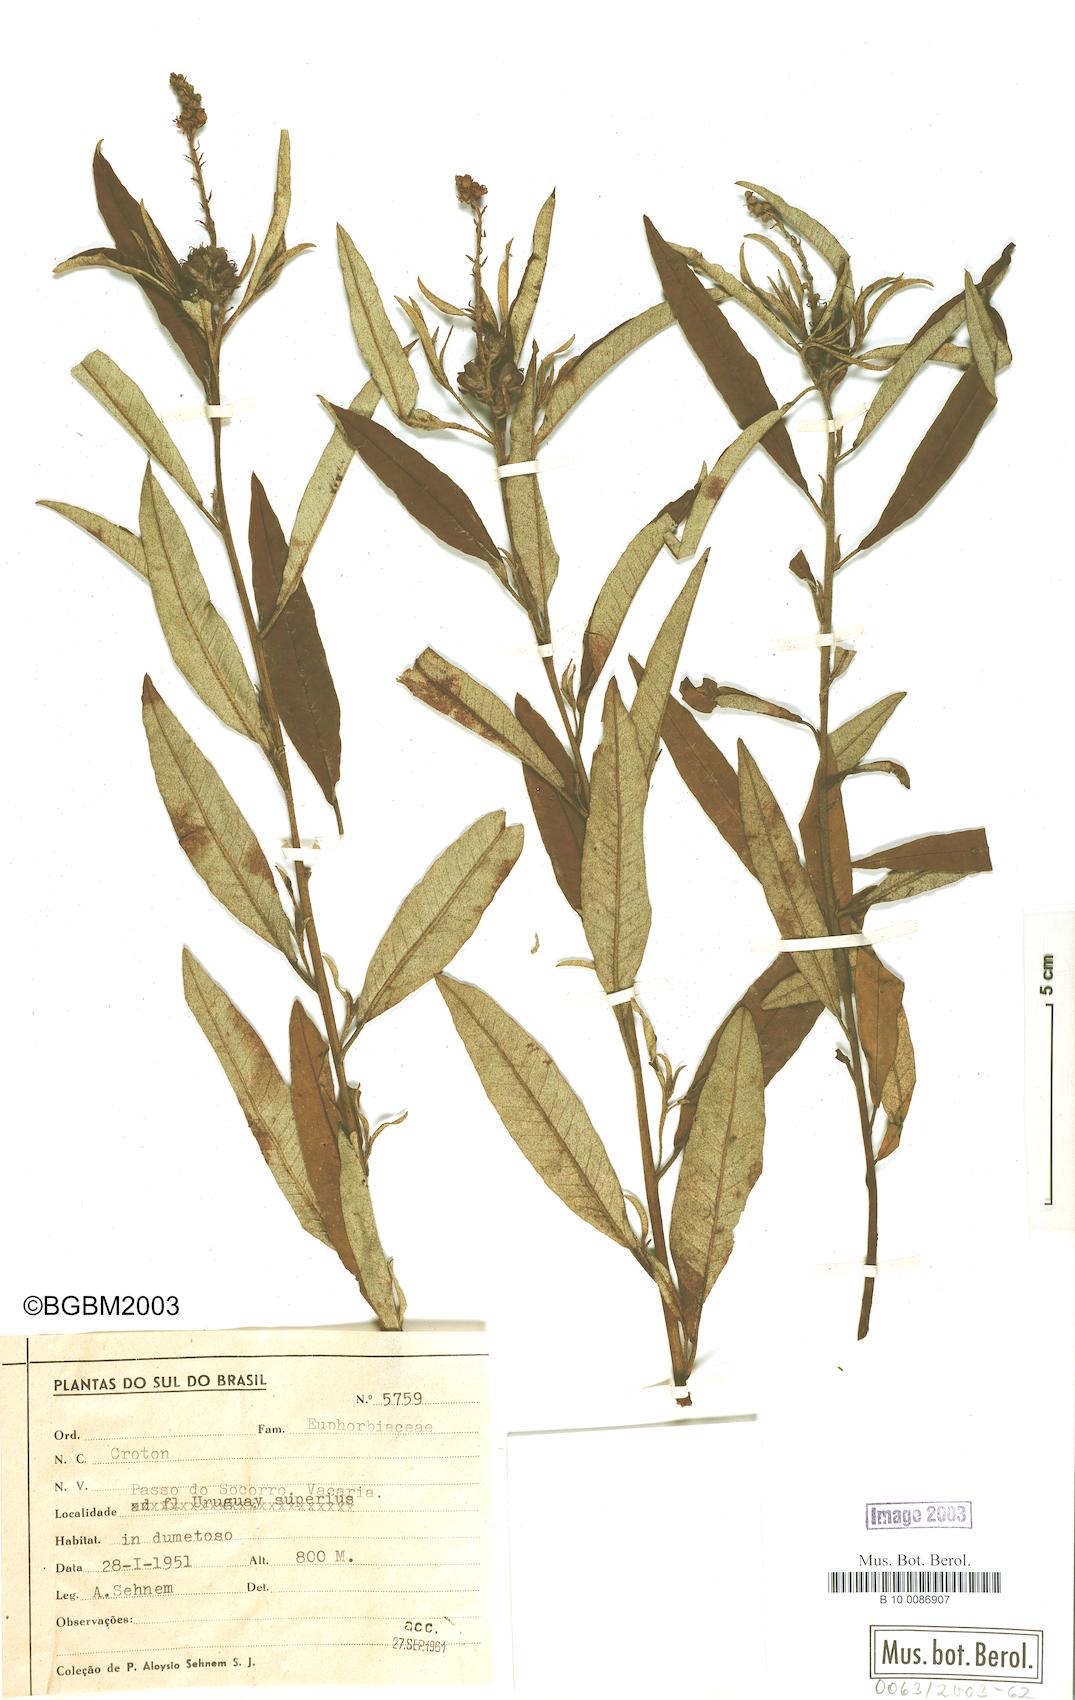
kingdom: Plantae
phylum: Tracheophyta
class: Magnoliopsida
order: Malpighiales
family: Euphorbiaceae
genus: Croton
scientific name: Croton
